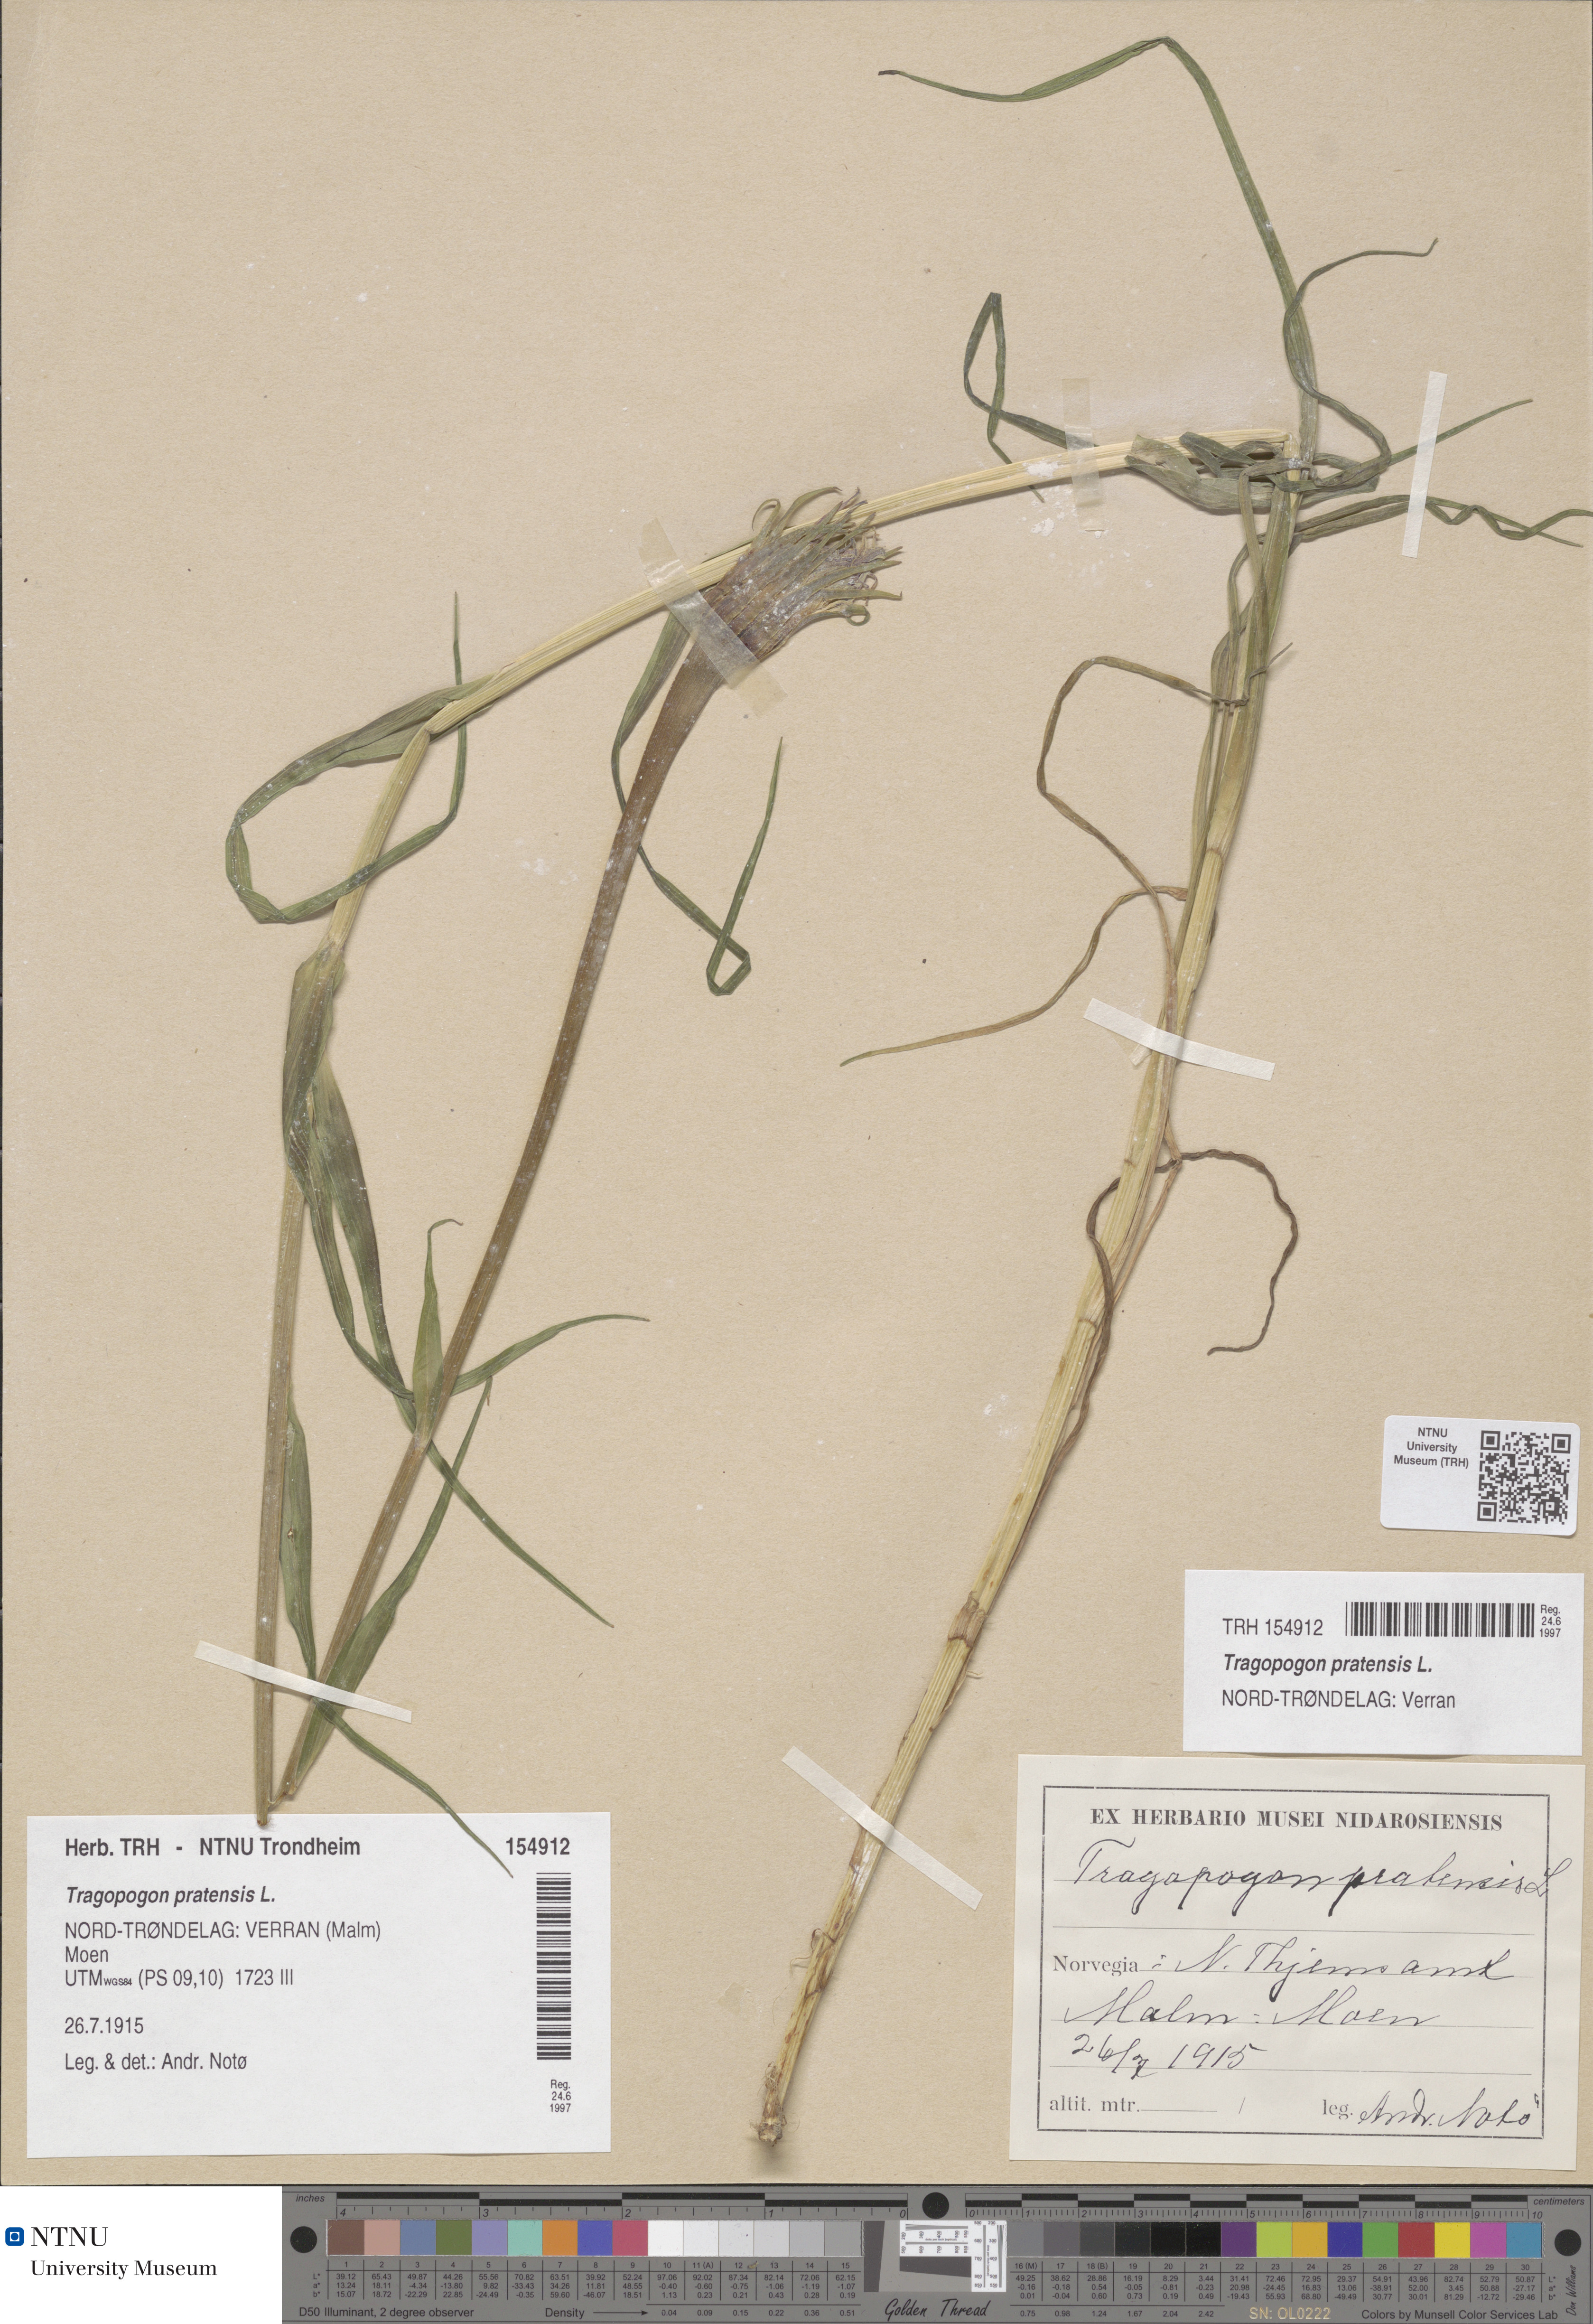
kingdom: Plantae
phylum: Tracheophyta
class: Magnoliopsida
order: Asterales
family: Asteraceae
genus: Tragopogon
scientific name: Tragopogon pratensis
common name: Goat's-beard
